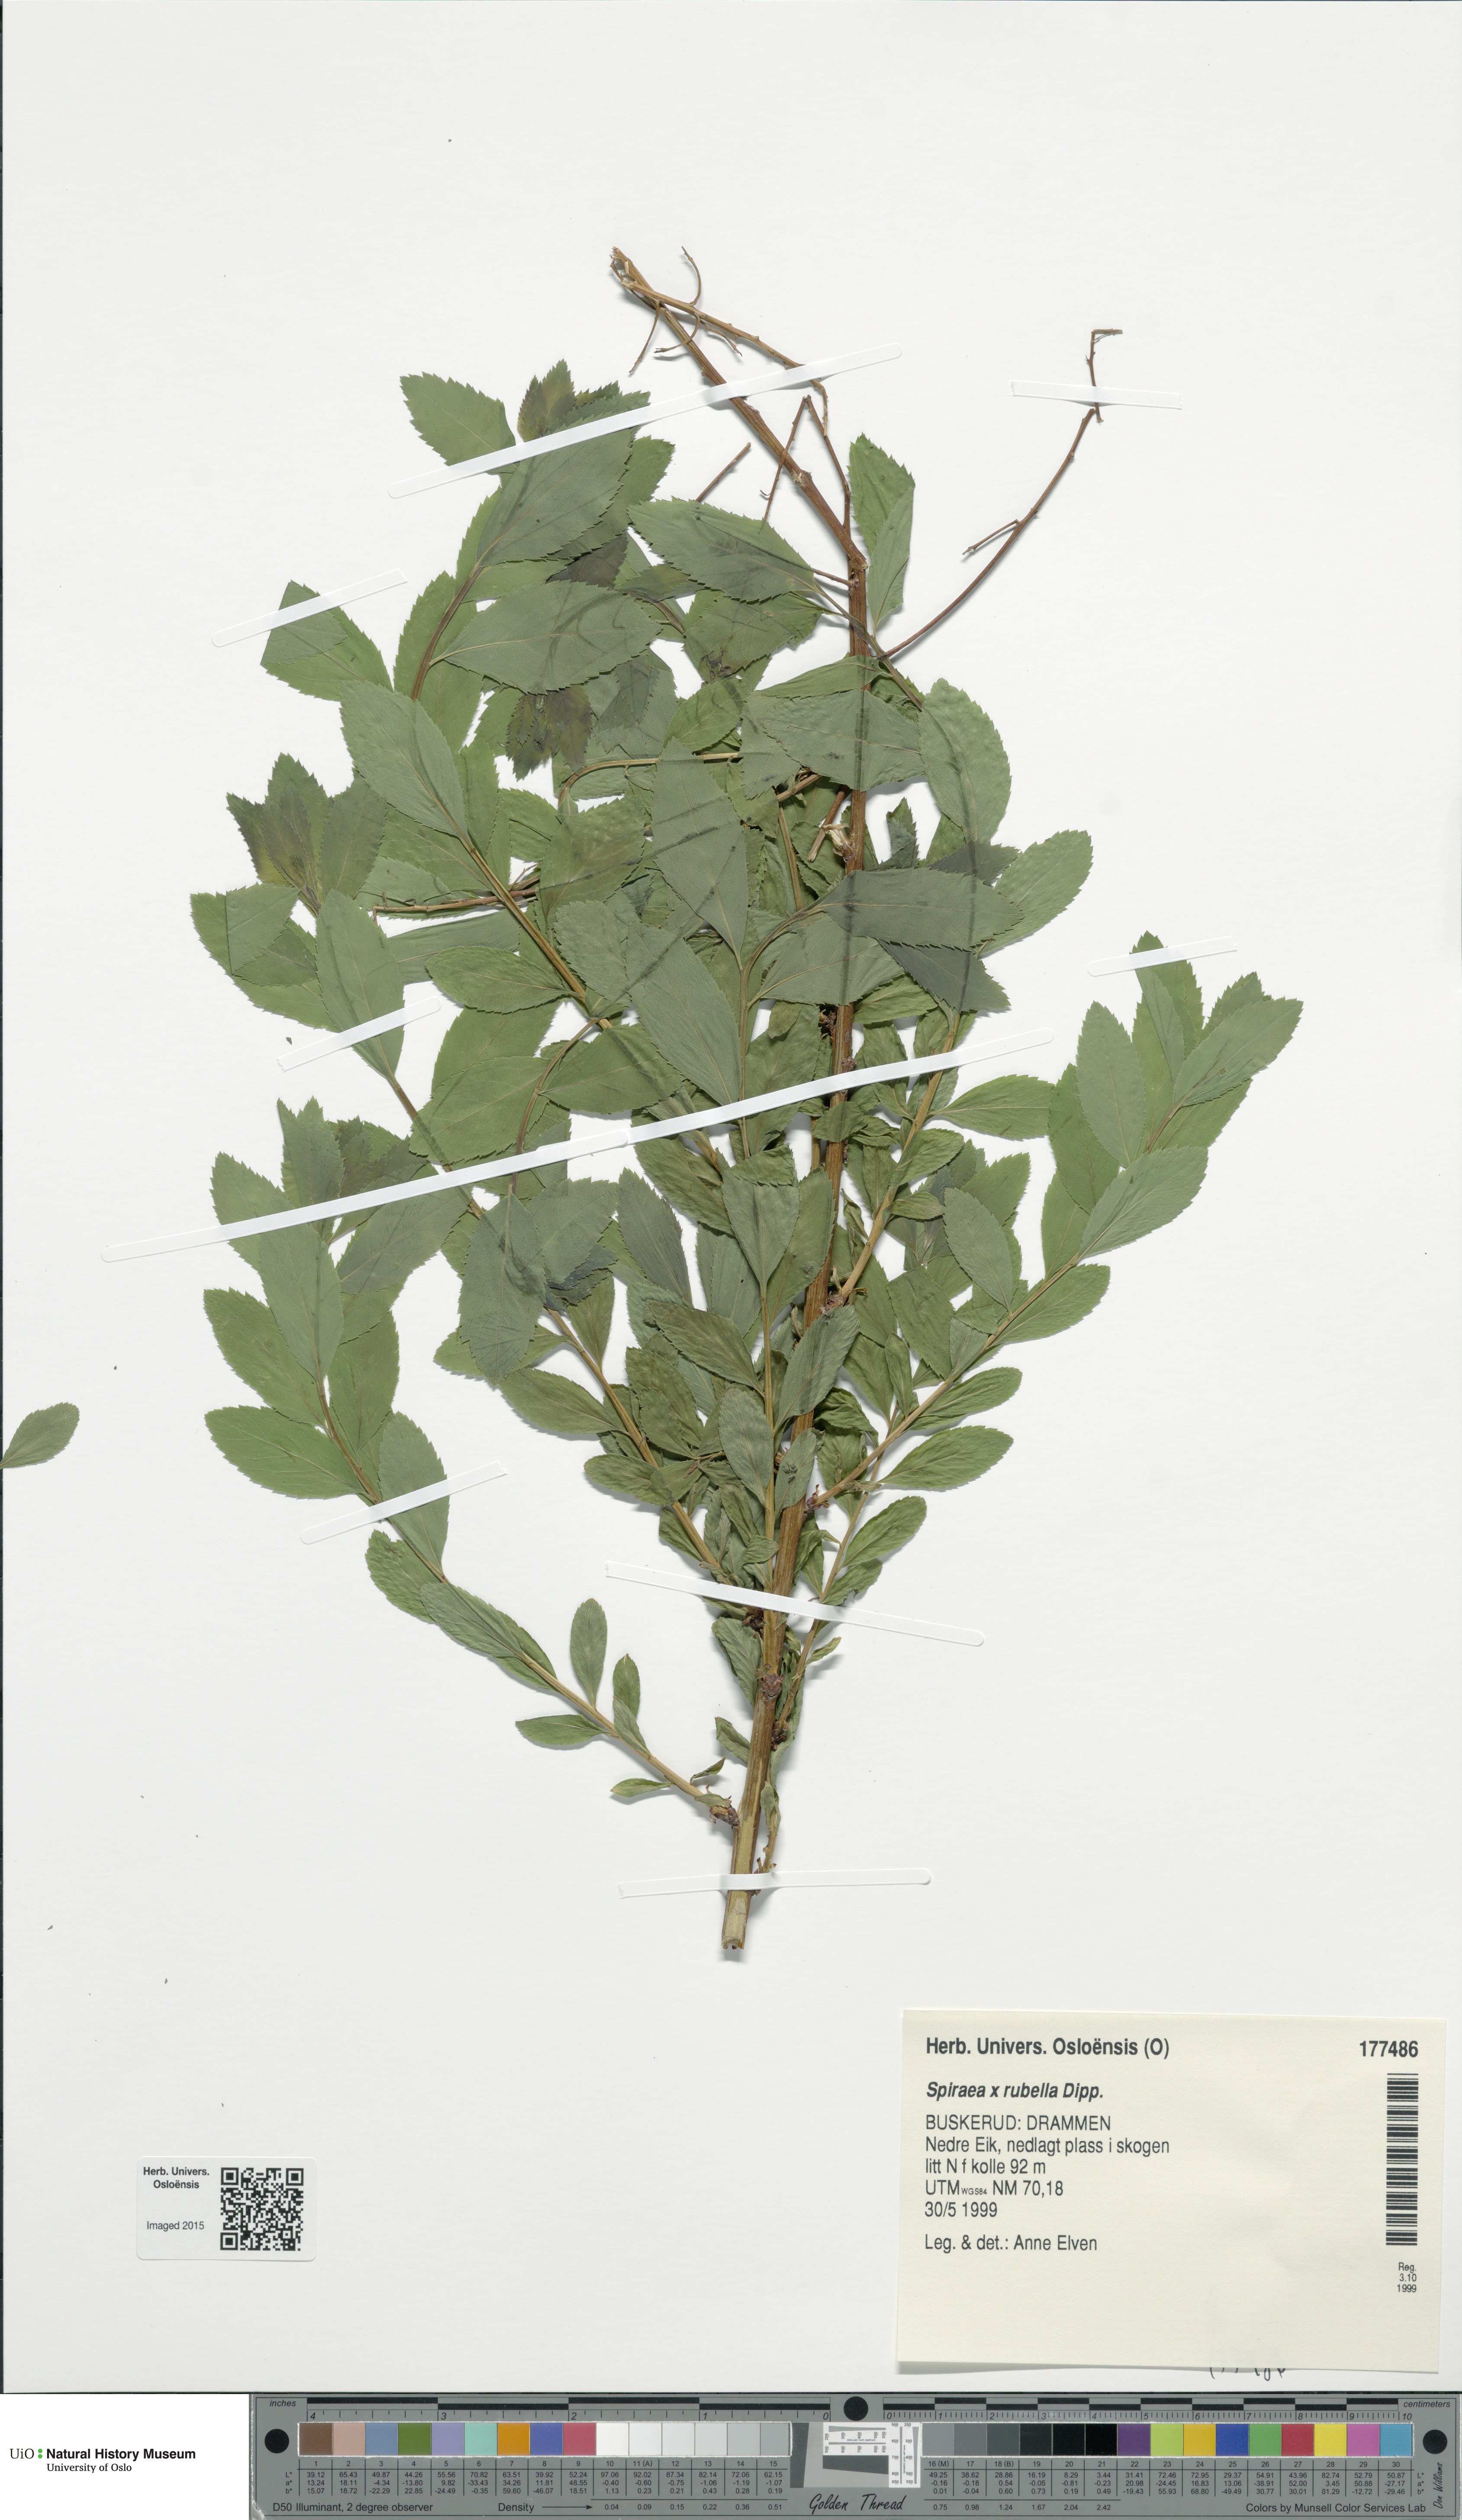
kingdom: Plantae
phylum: Tracheophyta
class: Magnoliopsida
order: Rosales
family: Rosaceae
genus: Spiraea
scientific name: Spiraea rosalba
